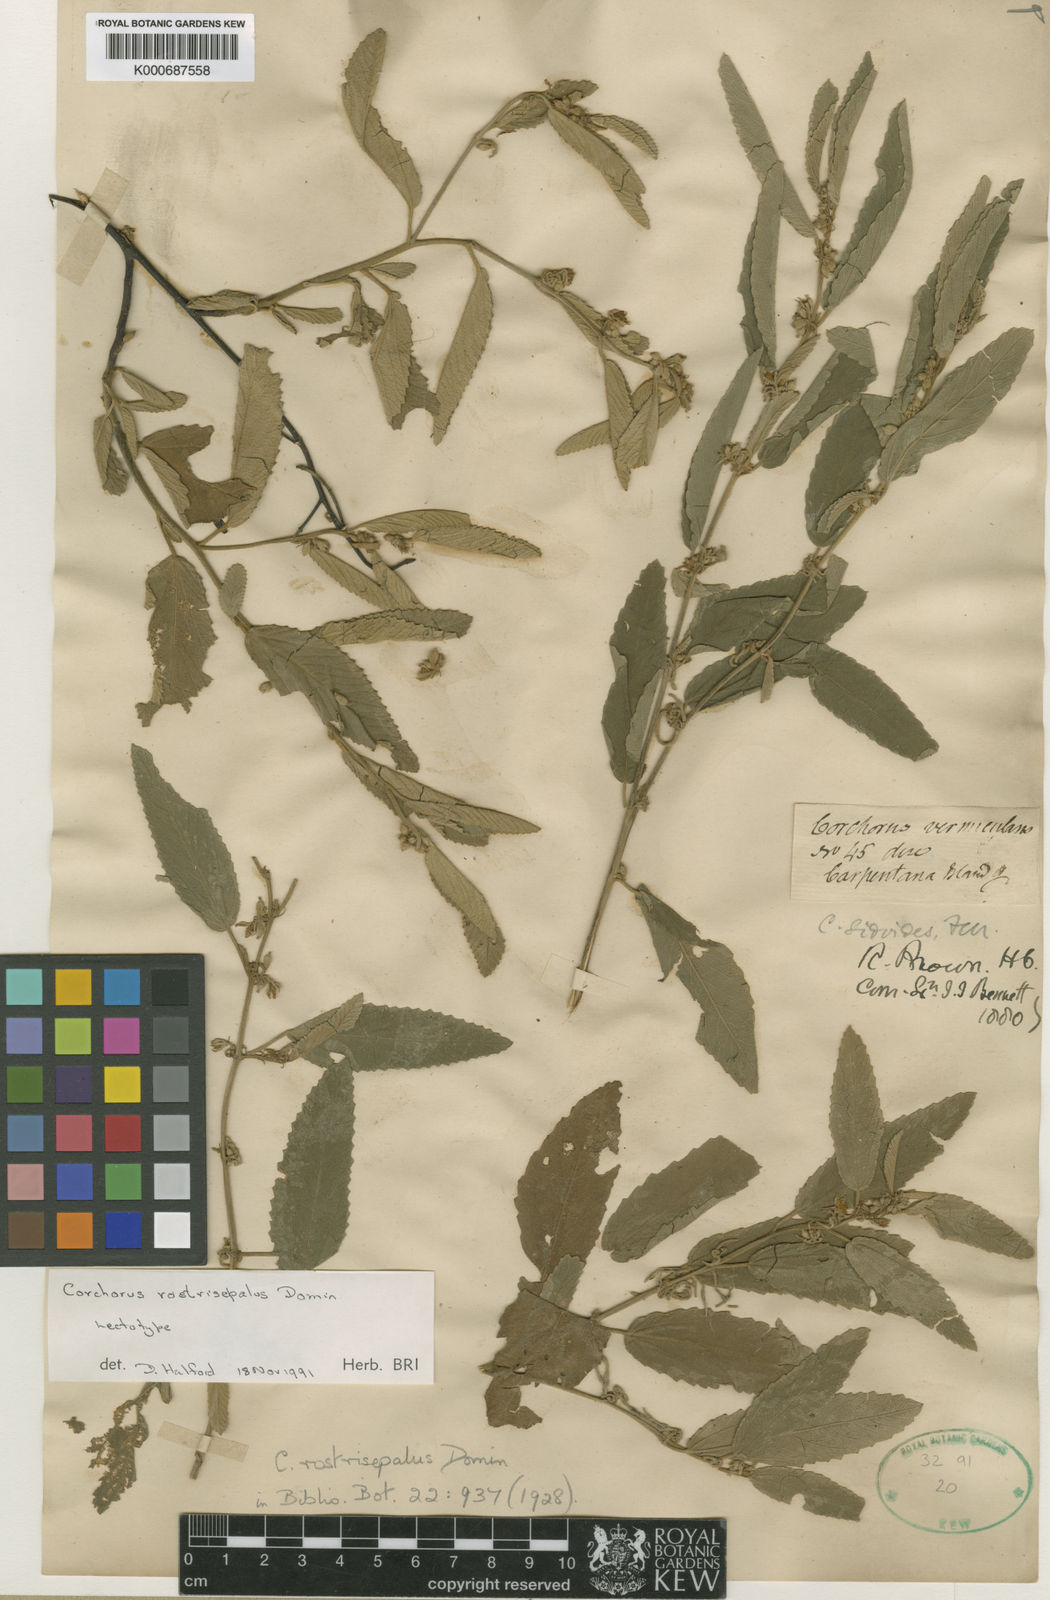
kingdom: Plantae
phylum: Tracheophyta
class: Magnoliopsida
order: Malvales
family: Malvaceae
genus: Corchorus
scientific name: Corchorus sidoides
